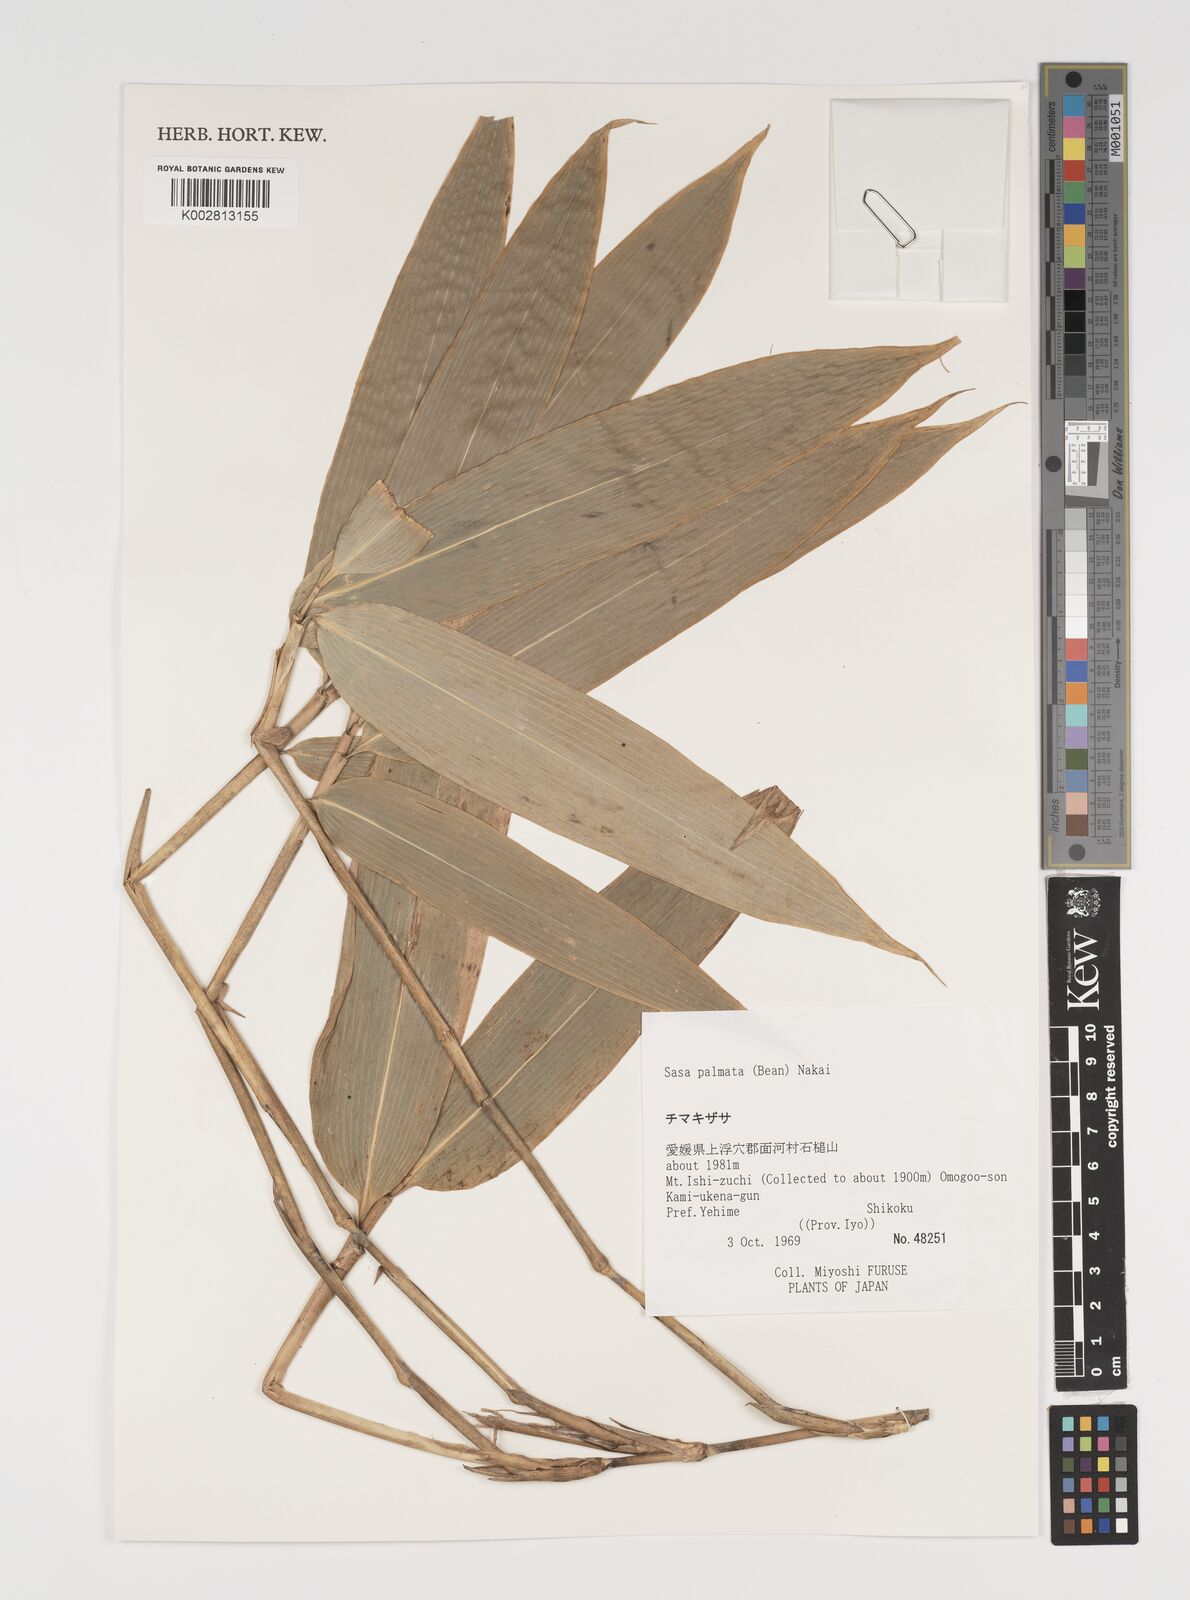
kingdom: Plantae
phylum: Tracheophyta
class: Liliopsida
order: Poales
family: Poaceae
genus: Sasa
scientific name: Sasa palmata
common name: Broad-leaved bamboo
